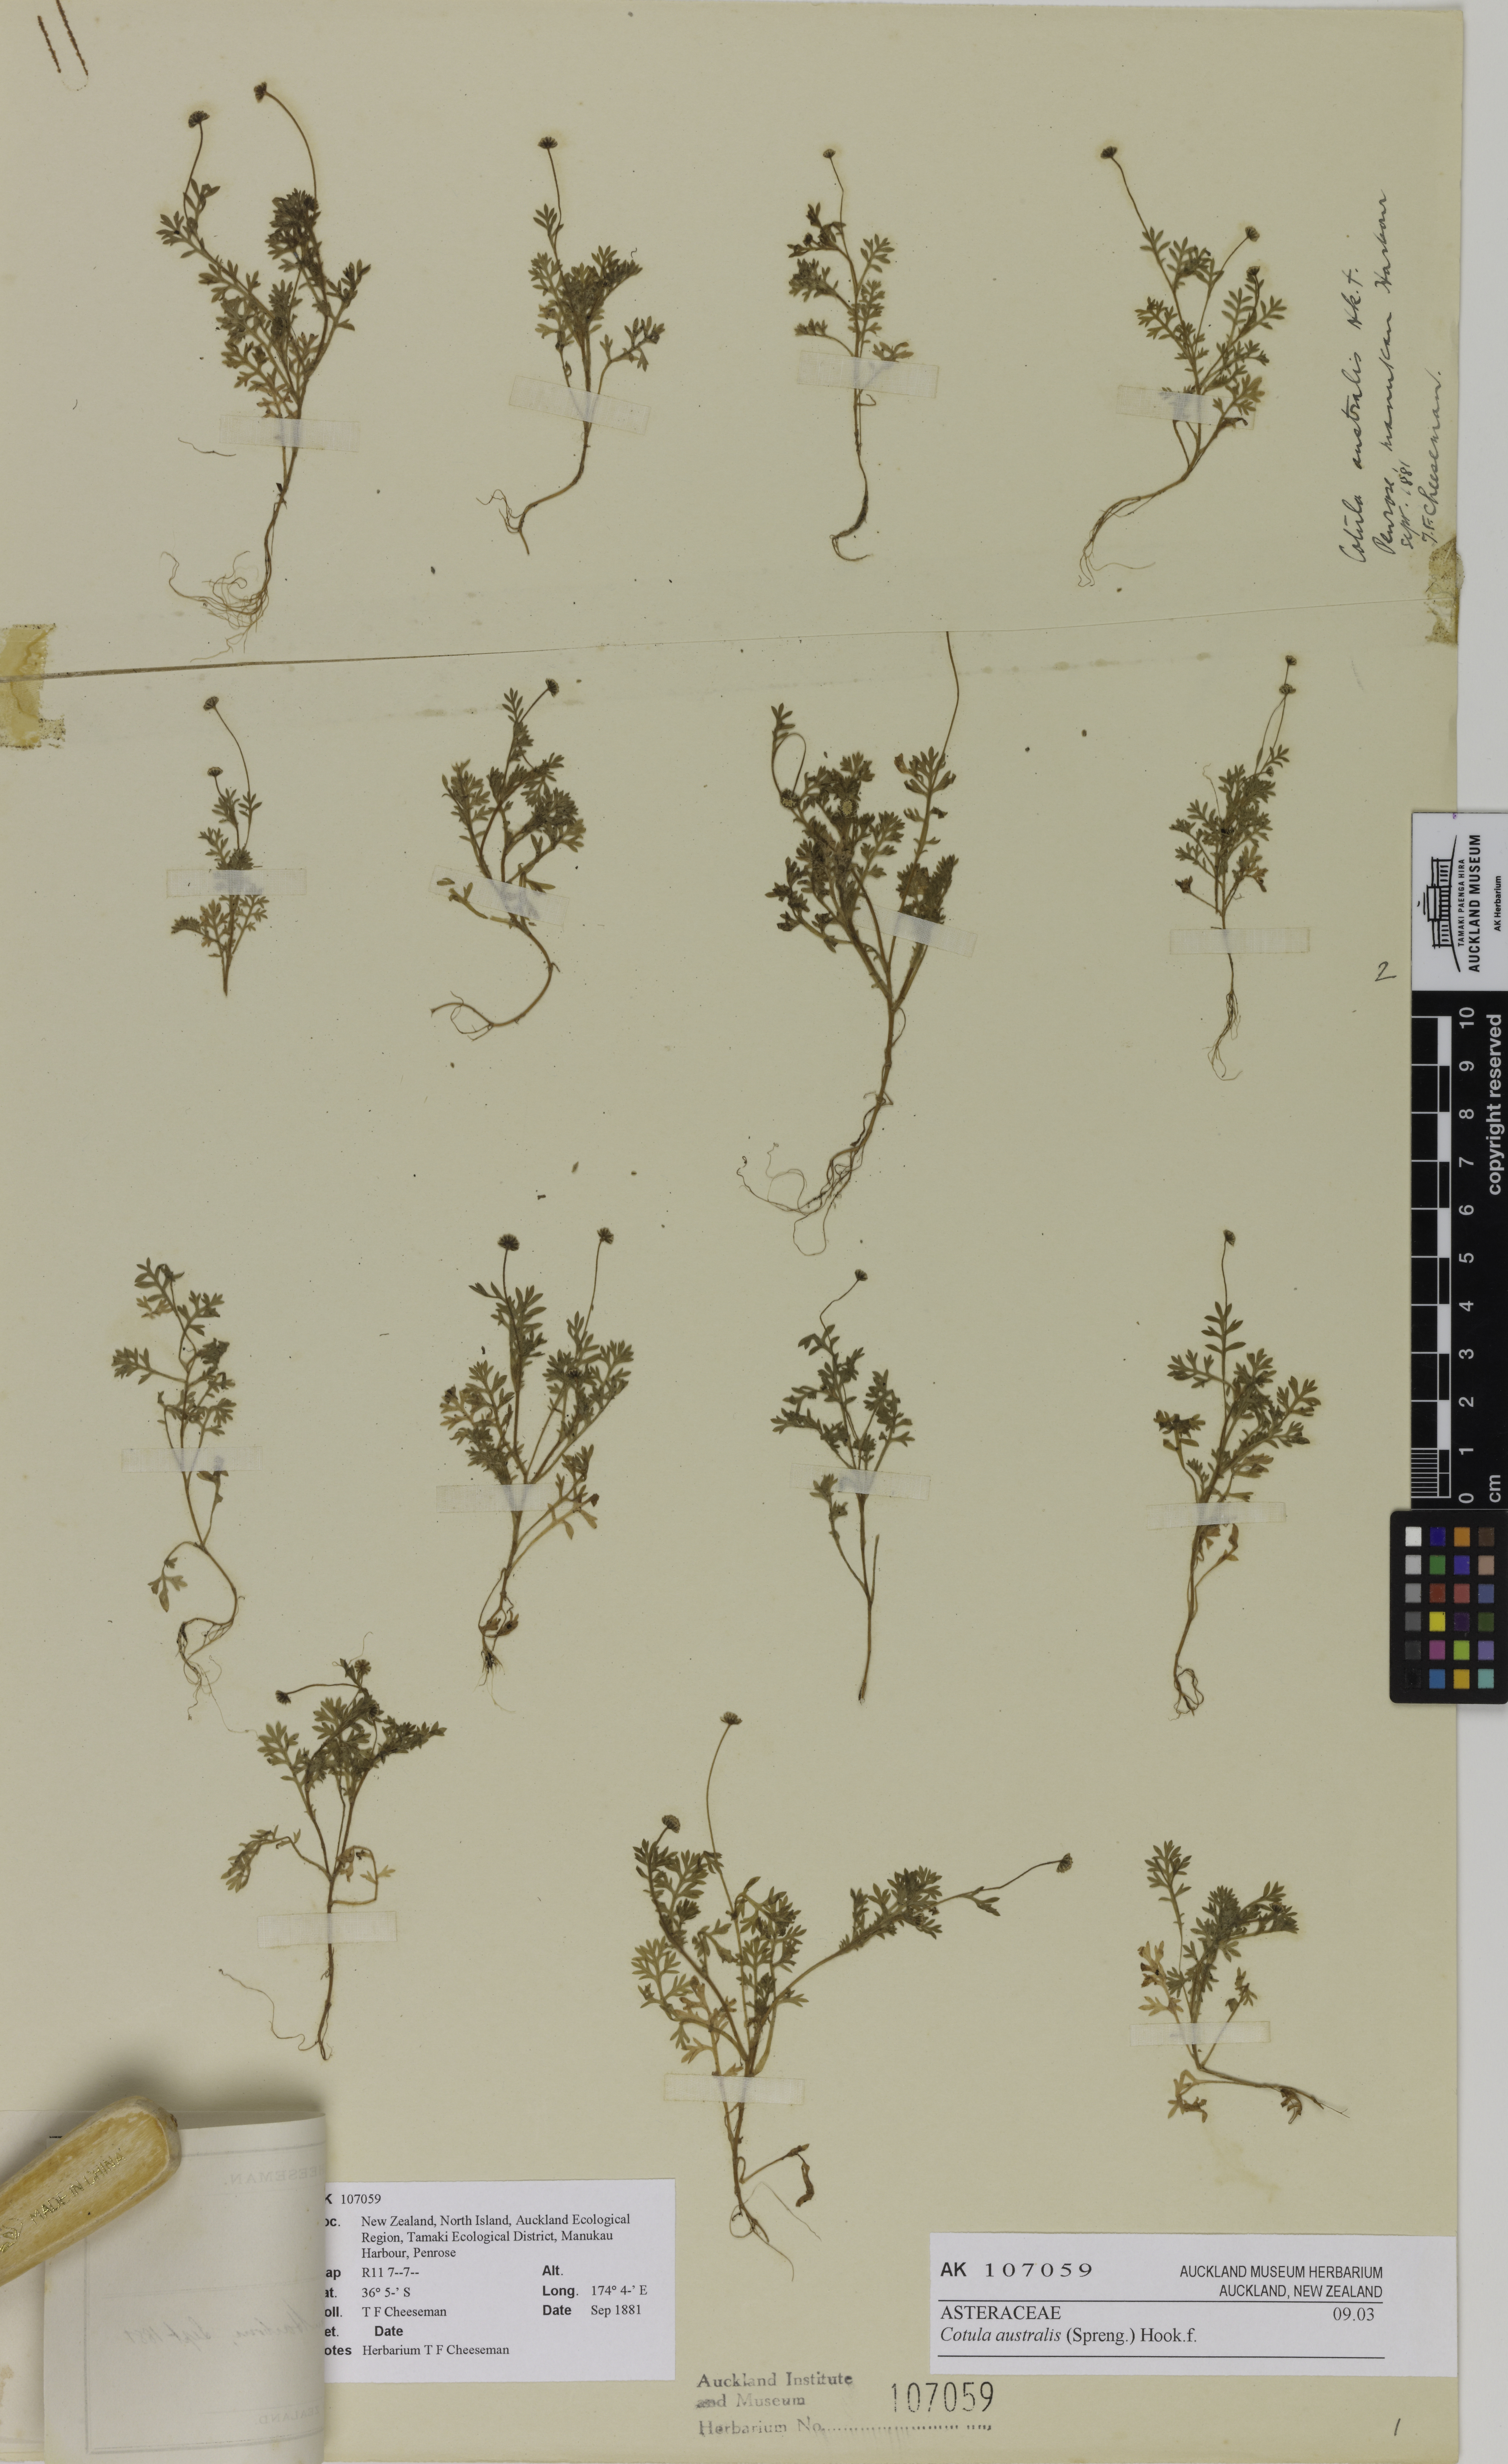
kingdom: Plantae
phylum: Tracheophyta
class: Magnoliopsida
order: Asterales
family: Asteraceae
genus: Cotula
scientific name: Cotula australis
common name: Australian waterbuttons
